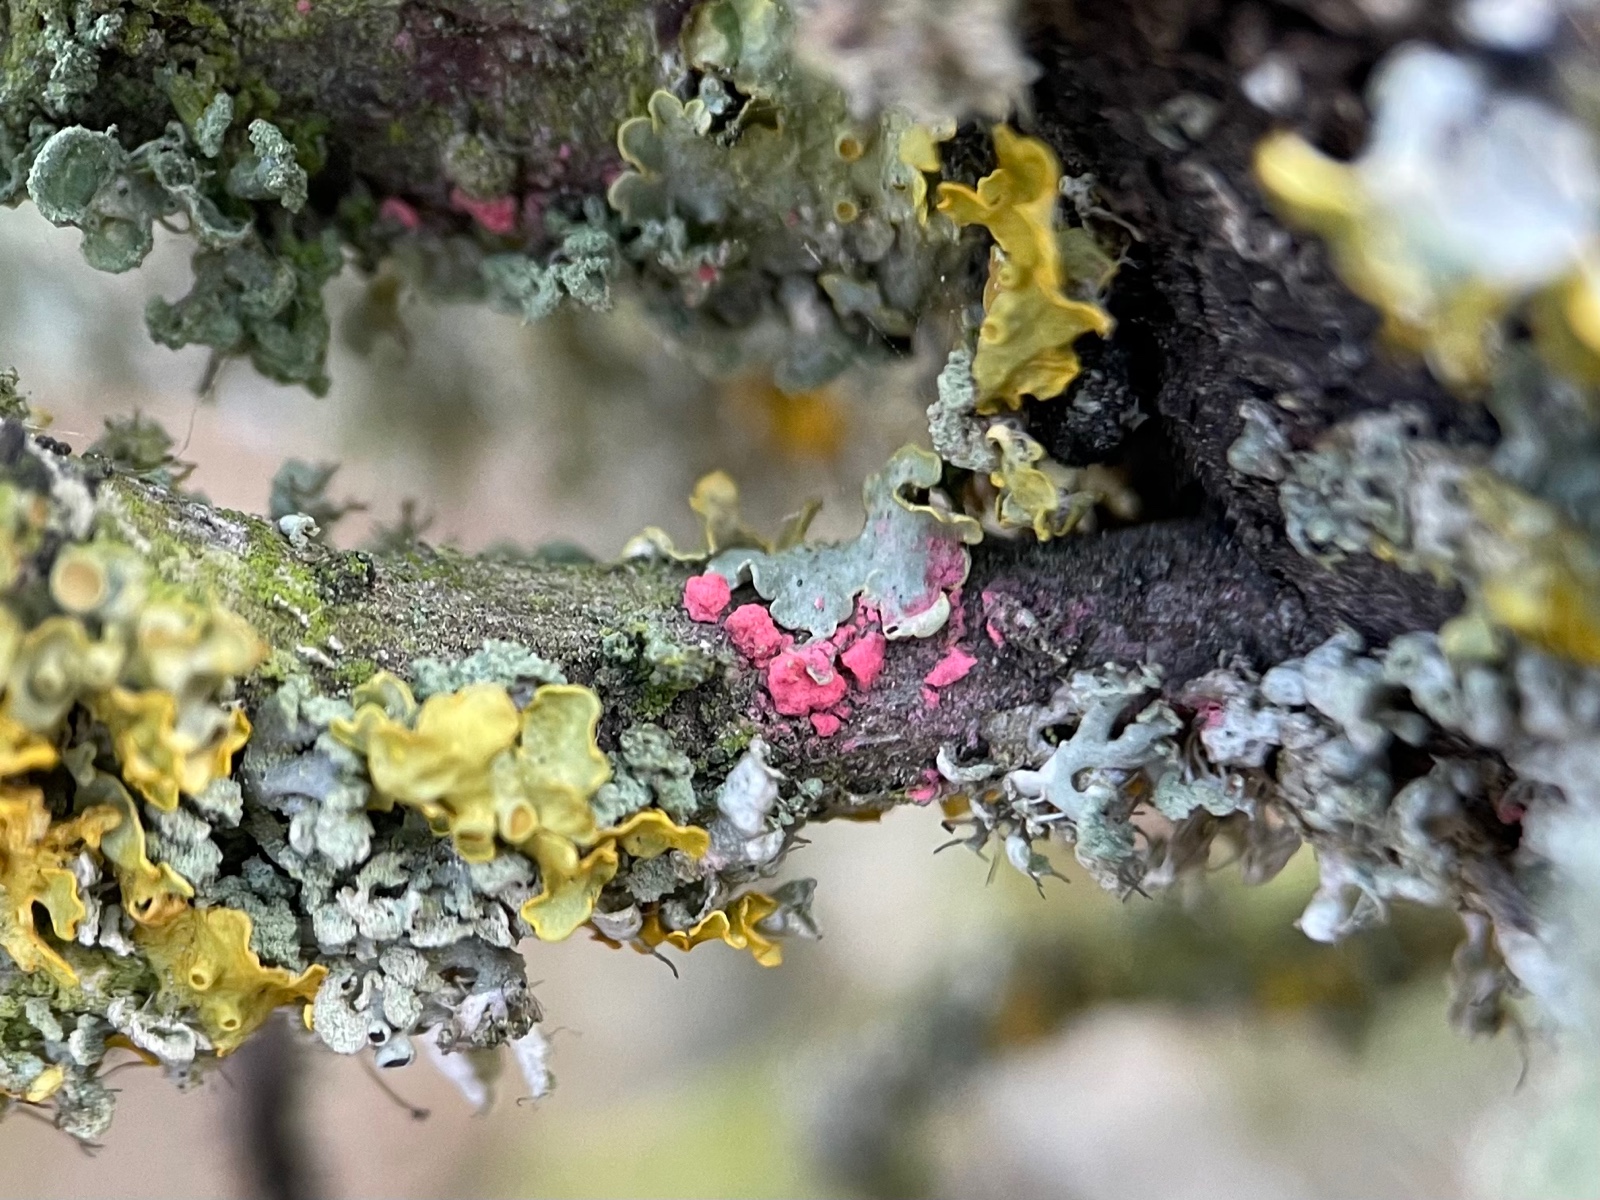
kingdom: Fungi
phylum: Ascomycota
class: Sordariomycetes
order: Hypocreales
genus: Illosporiopsis
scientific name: Illosporiopsis christiansenii
